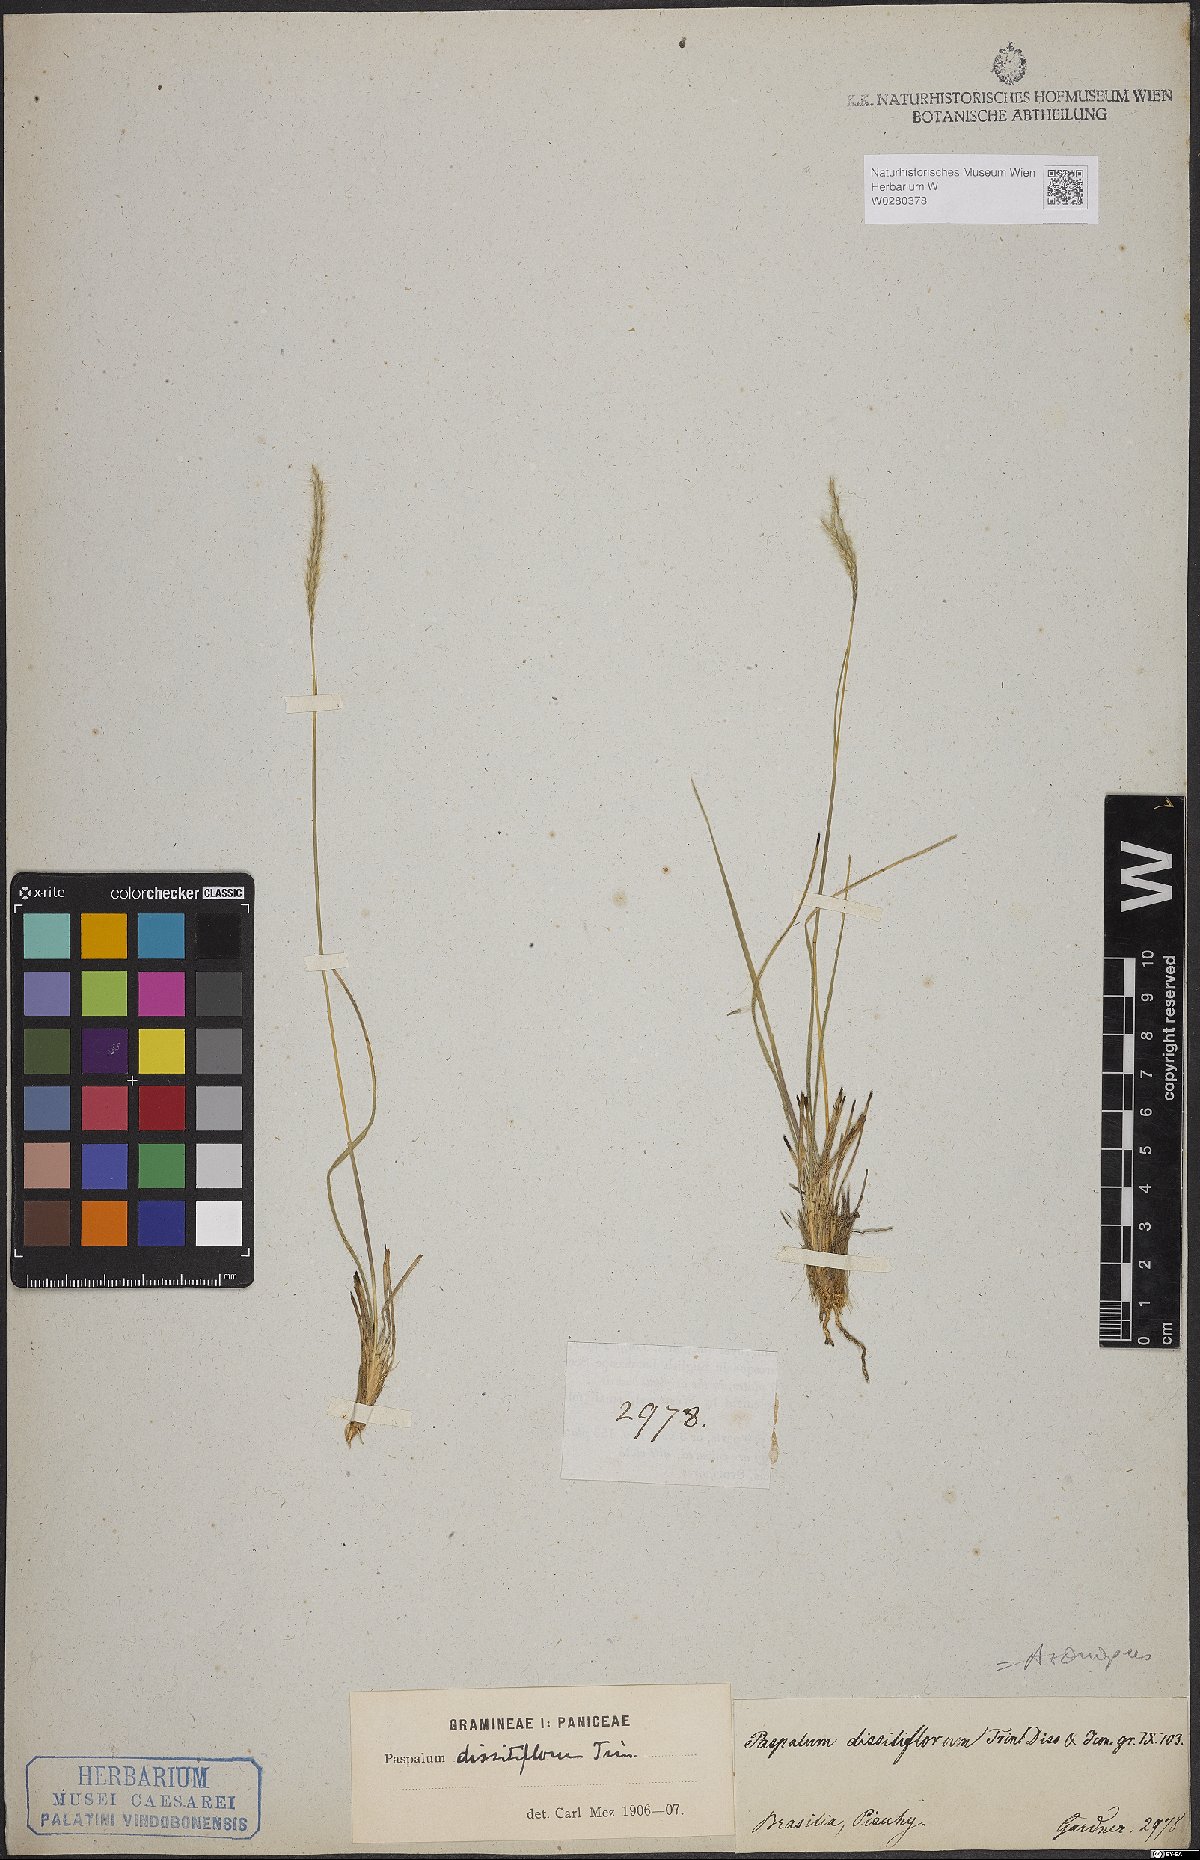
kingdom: Plantae
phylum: Tracheophyta
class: Liliopsida
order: Poales
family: Poaceae
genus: Axonopus
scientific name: Axonopus brasiliensis
